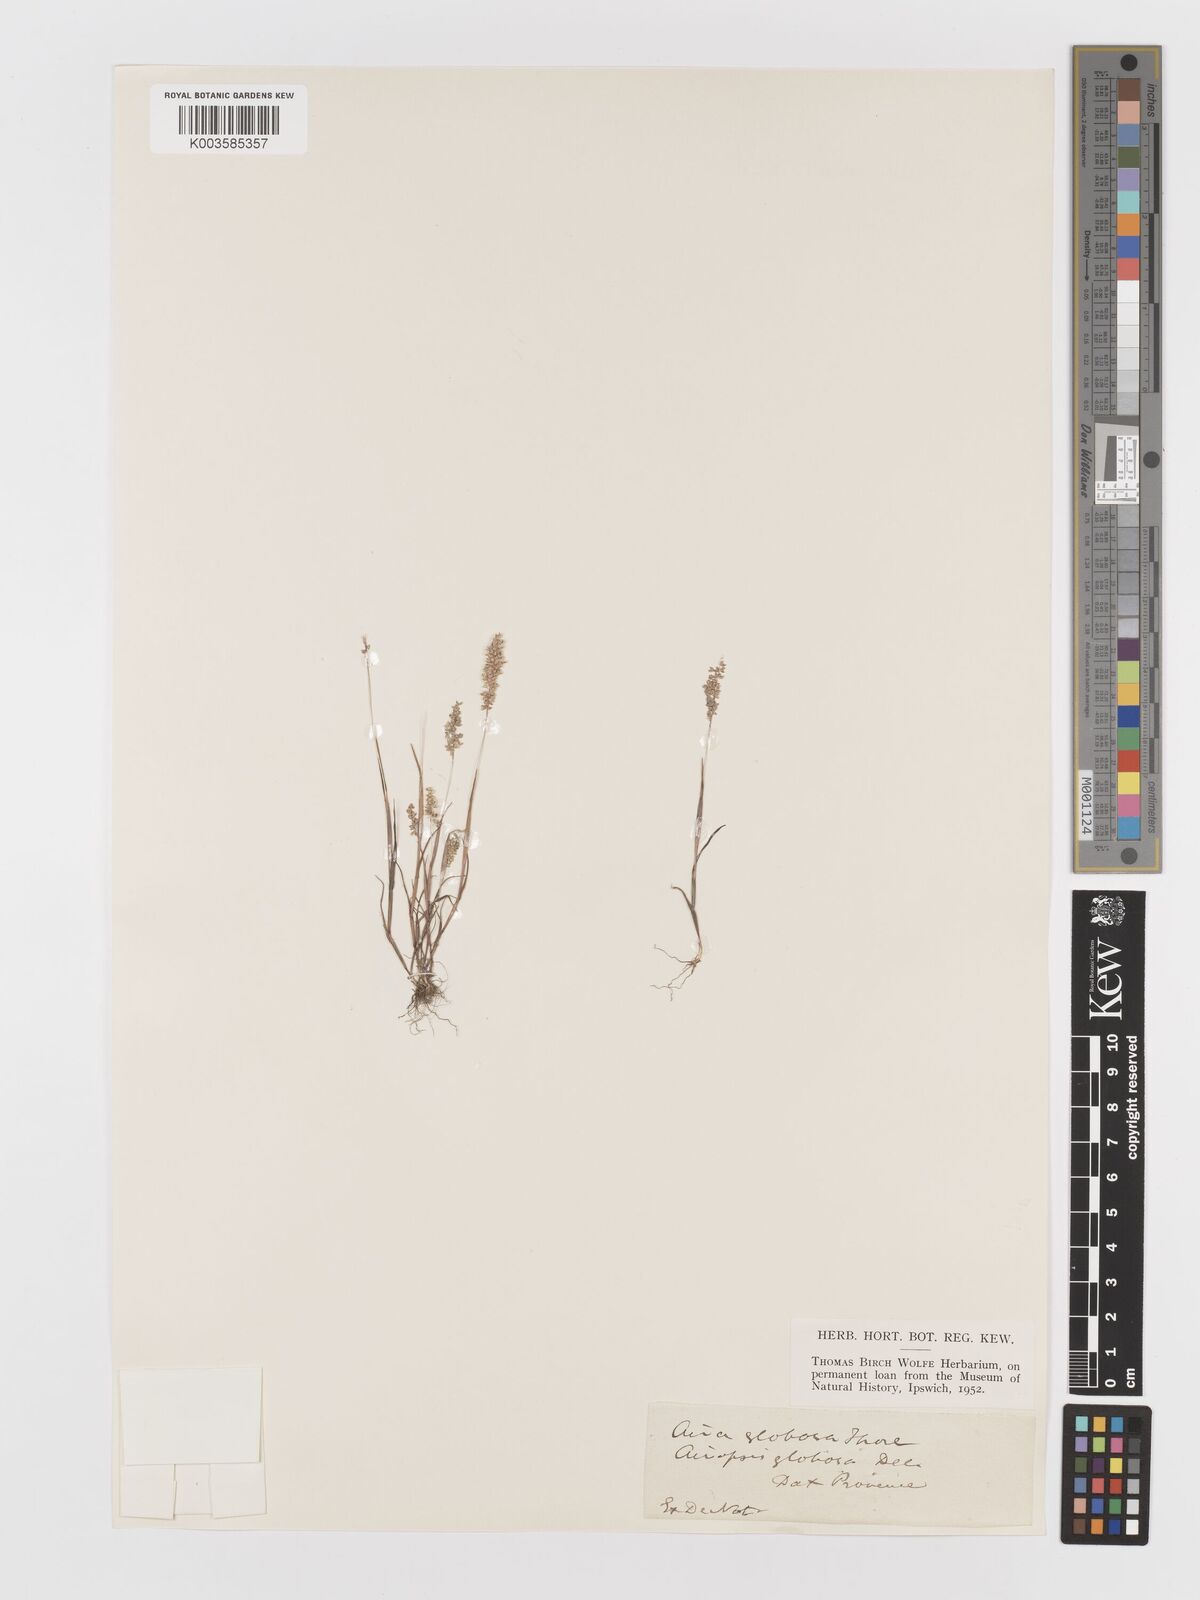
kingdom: Plantae
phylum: Tracheophyta
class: Liliopsida
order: Poales
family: Poaceae
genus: Airopsis
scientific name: Airopsis tenella
